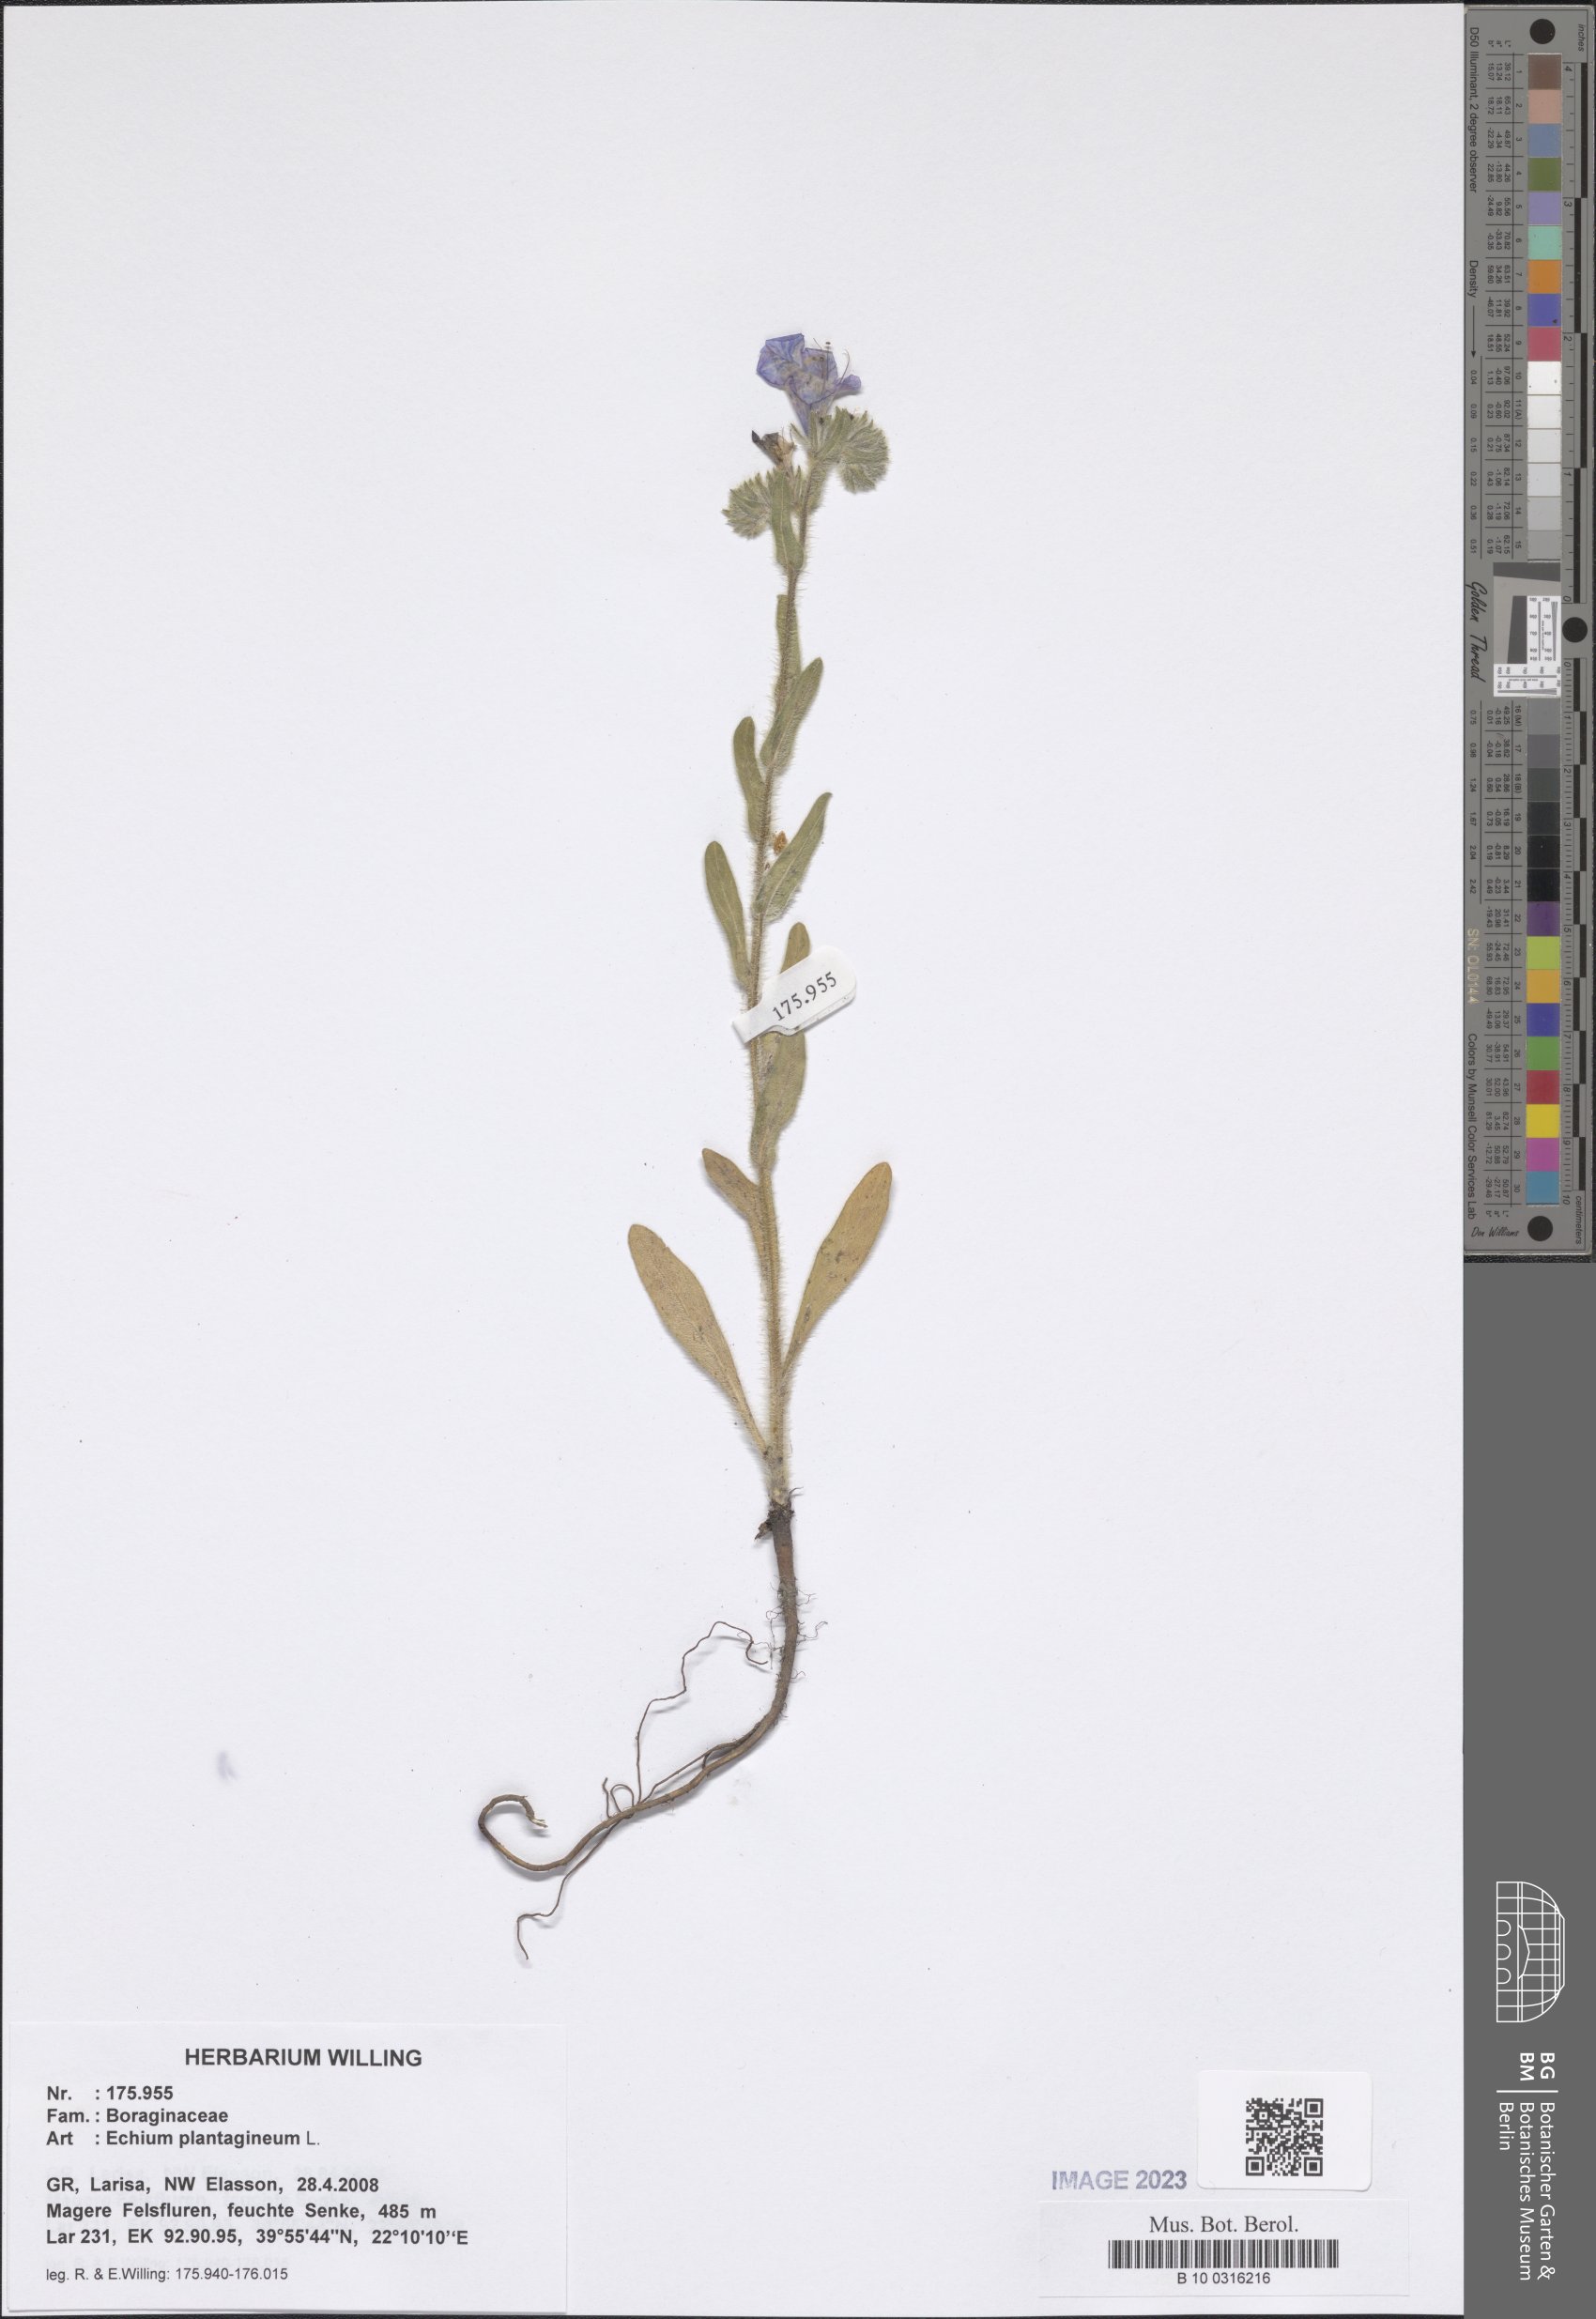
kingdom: Plantae
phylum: Tracheophyta
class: Magnoliopsida
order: Boraginales
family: Boraginaceae
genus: Echium
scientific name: Echium plantagineum
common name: Purple viper's-bugloss
